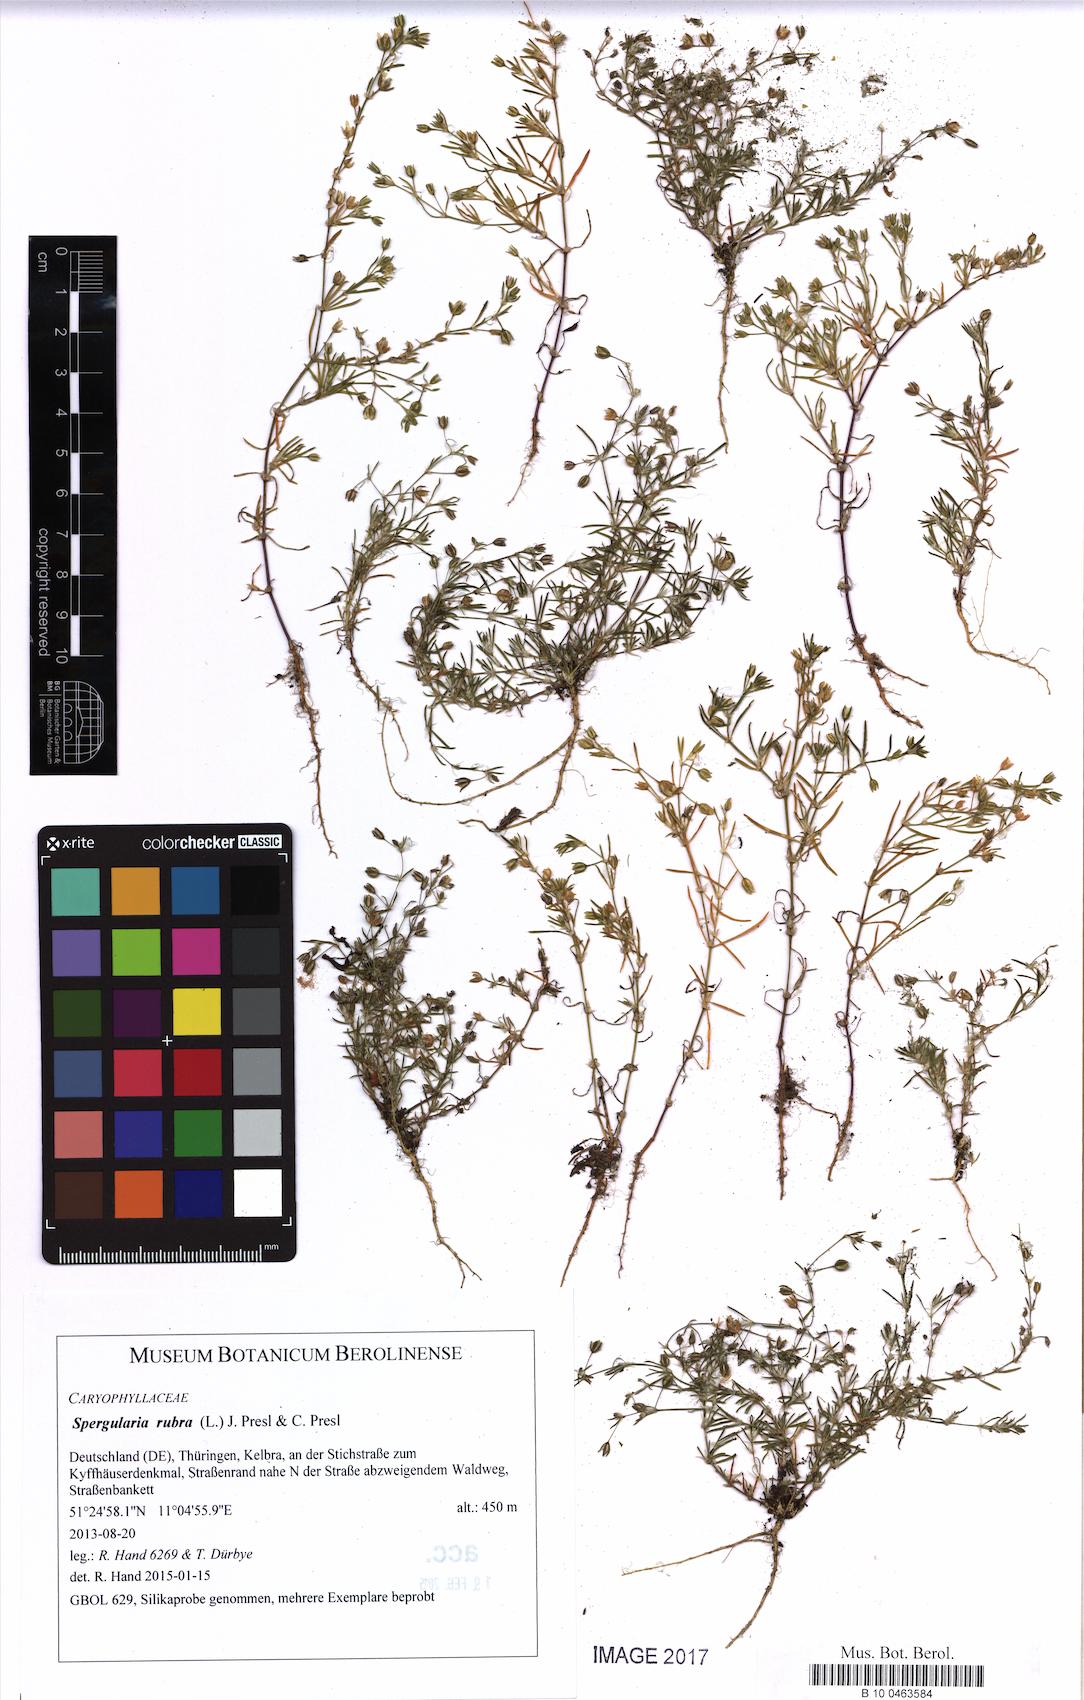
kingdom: Plantae
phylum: Tracheophyta
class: Magnoliopsida
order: Caryophyllales
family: Caryophyllaceae
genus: Spergularia
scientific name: Spergularia rubra
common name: Red sand-spurrey
